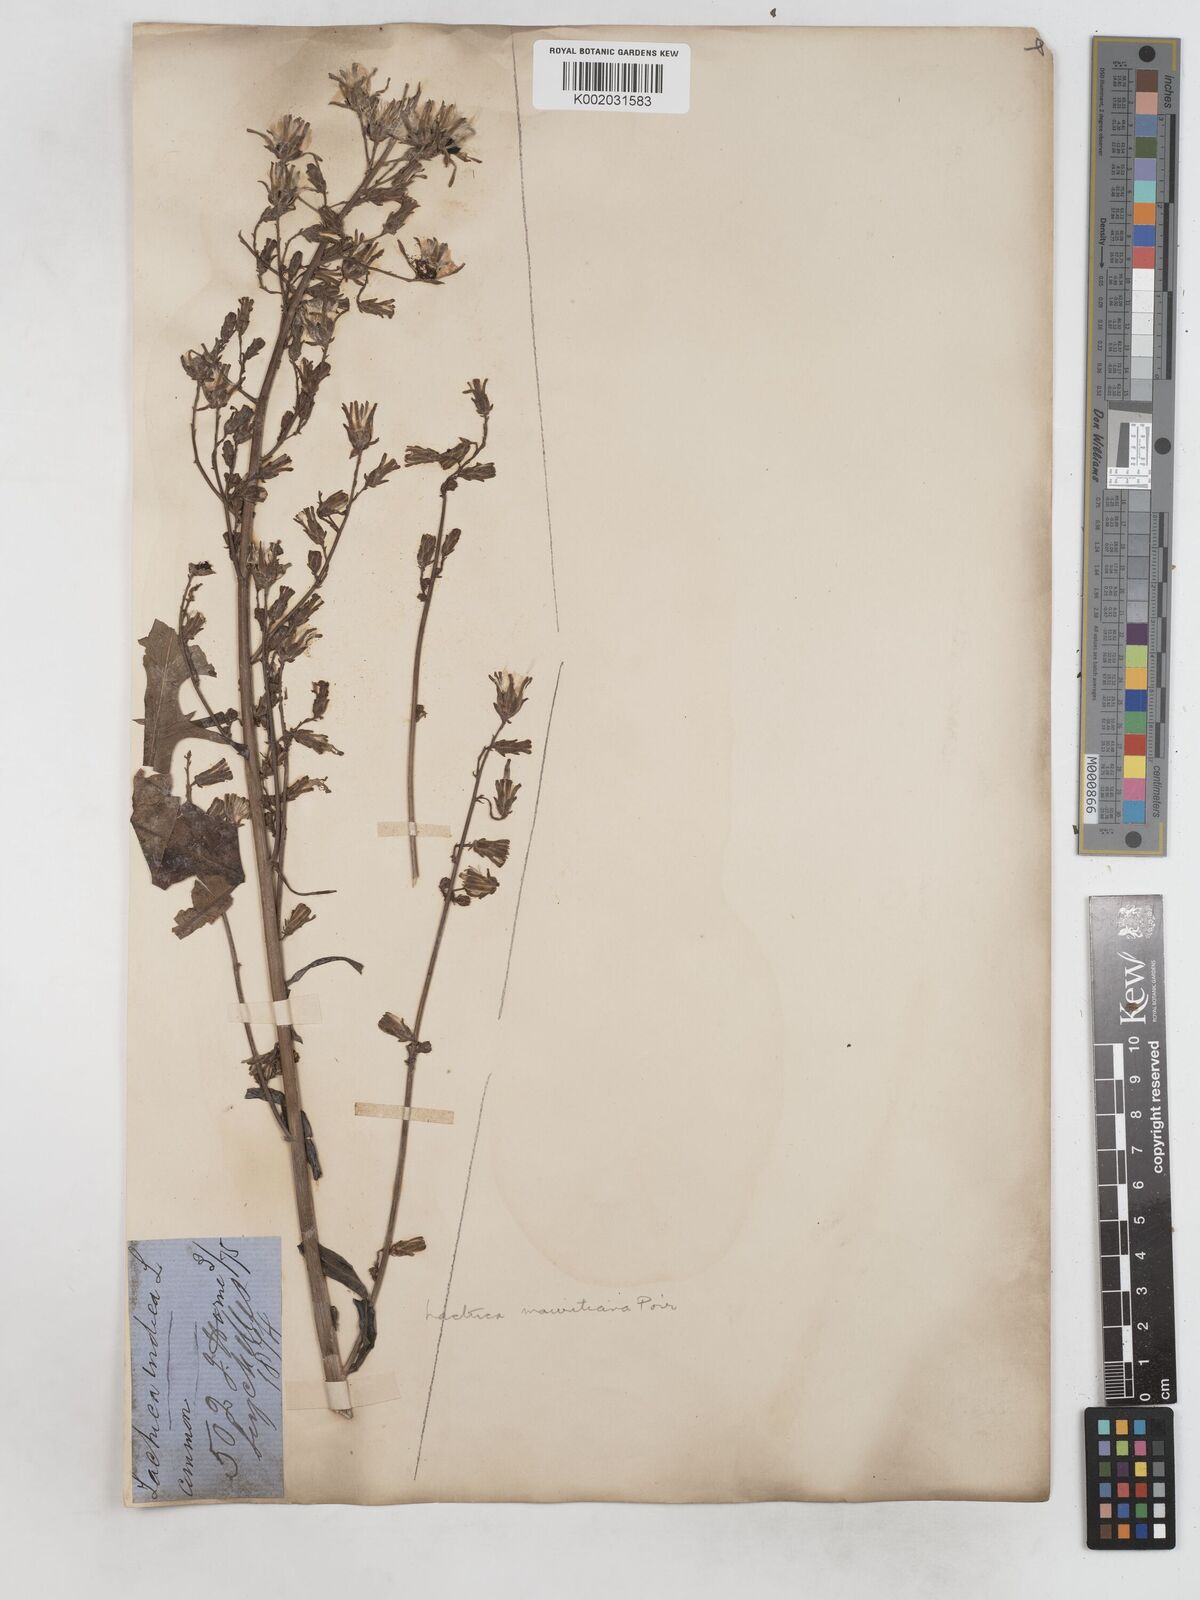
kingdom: Plantae
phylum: Tracheophyta
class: Magnoliopsida
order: Asterales
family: Asteraceae
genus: Lactuca
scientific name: Lactuca indica
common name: Wild lettuce
